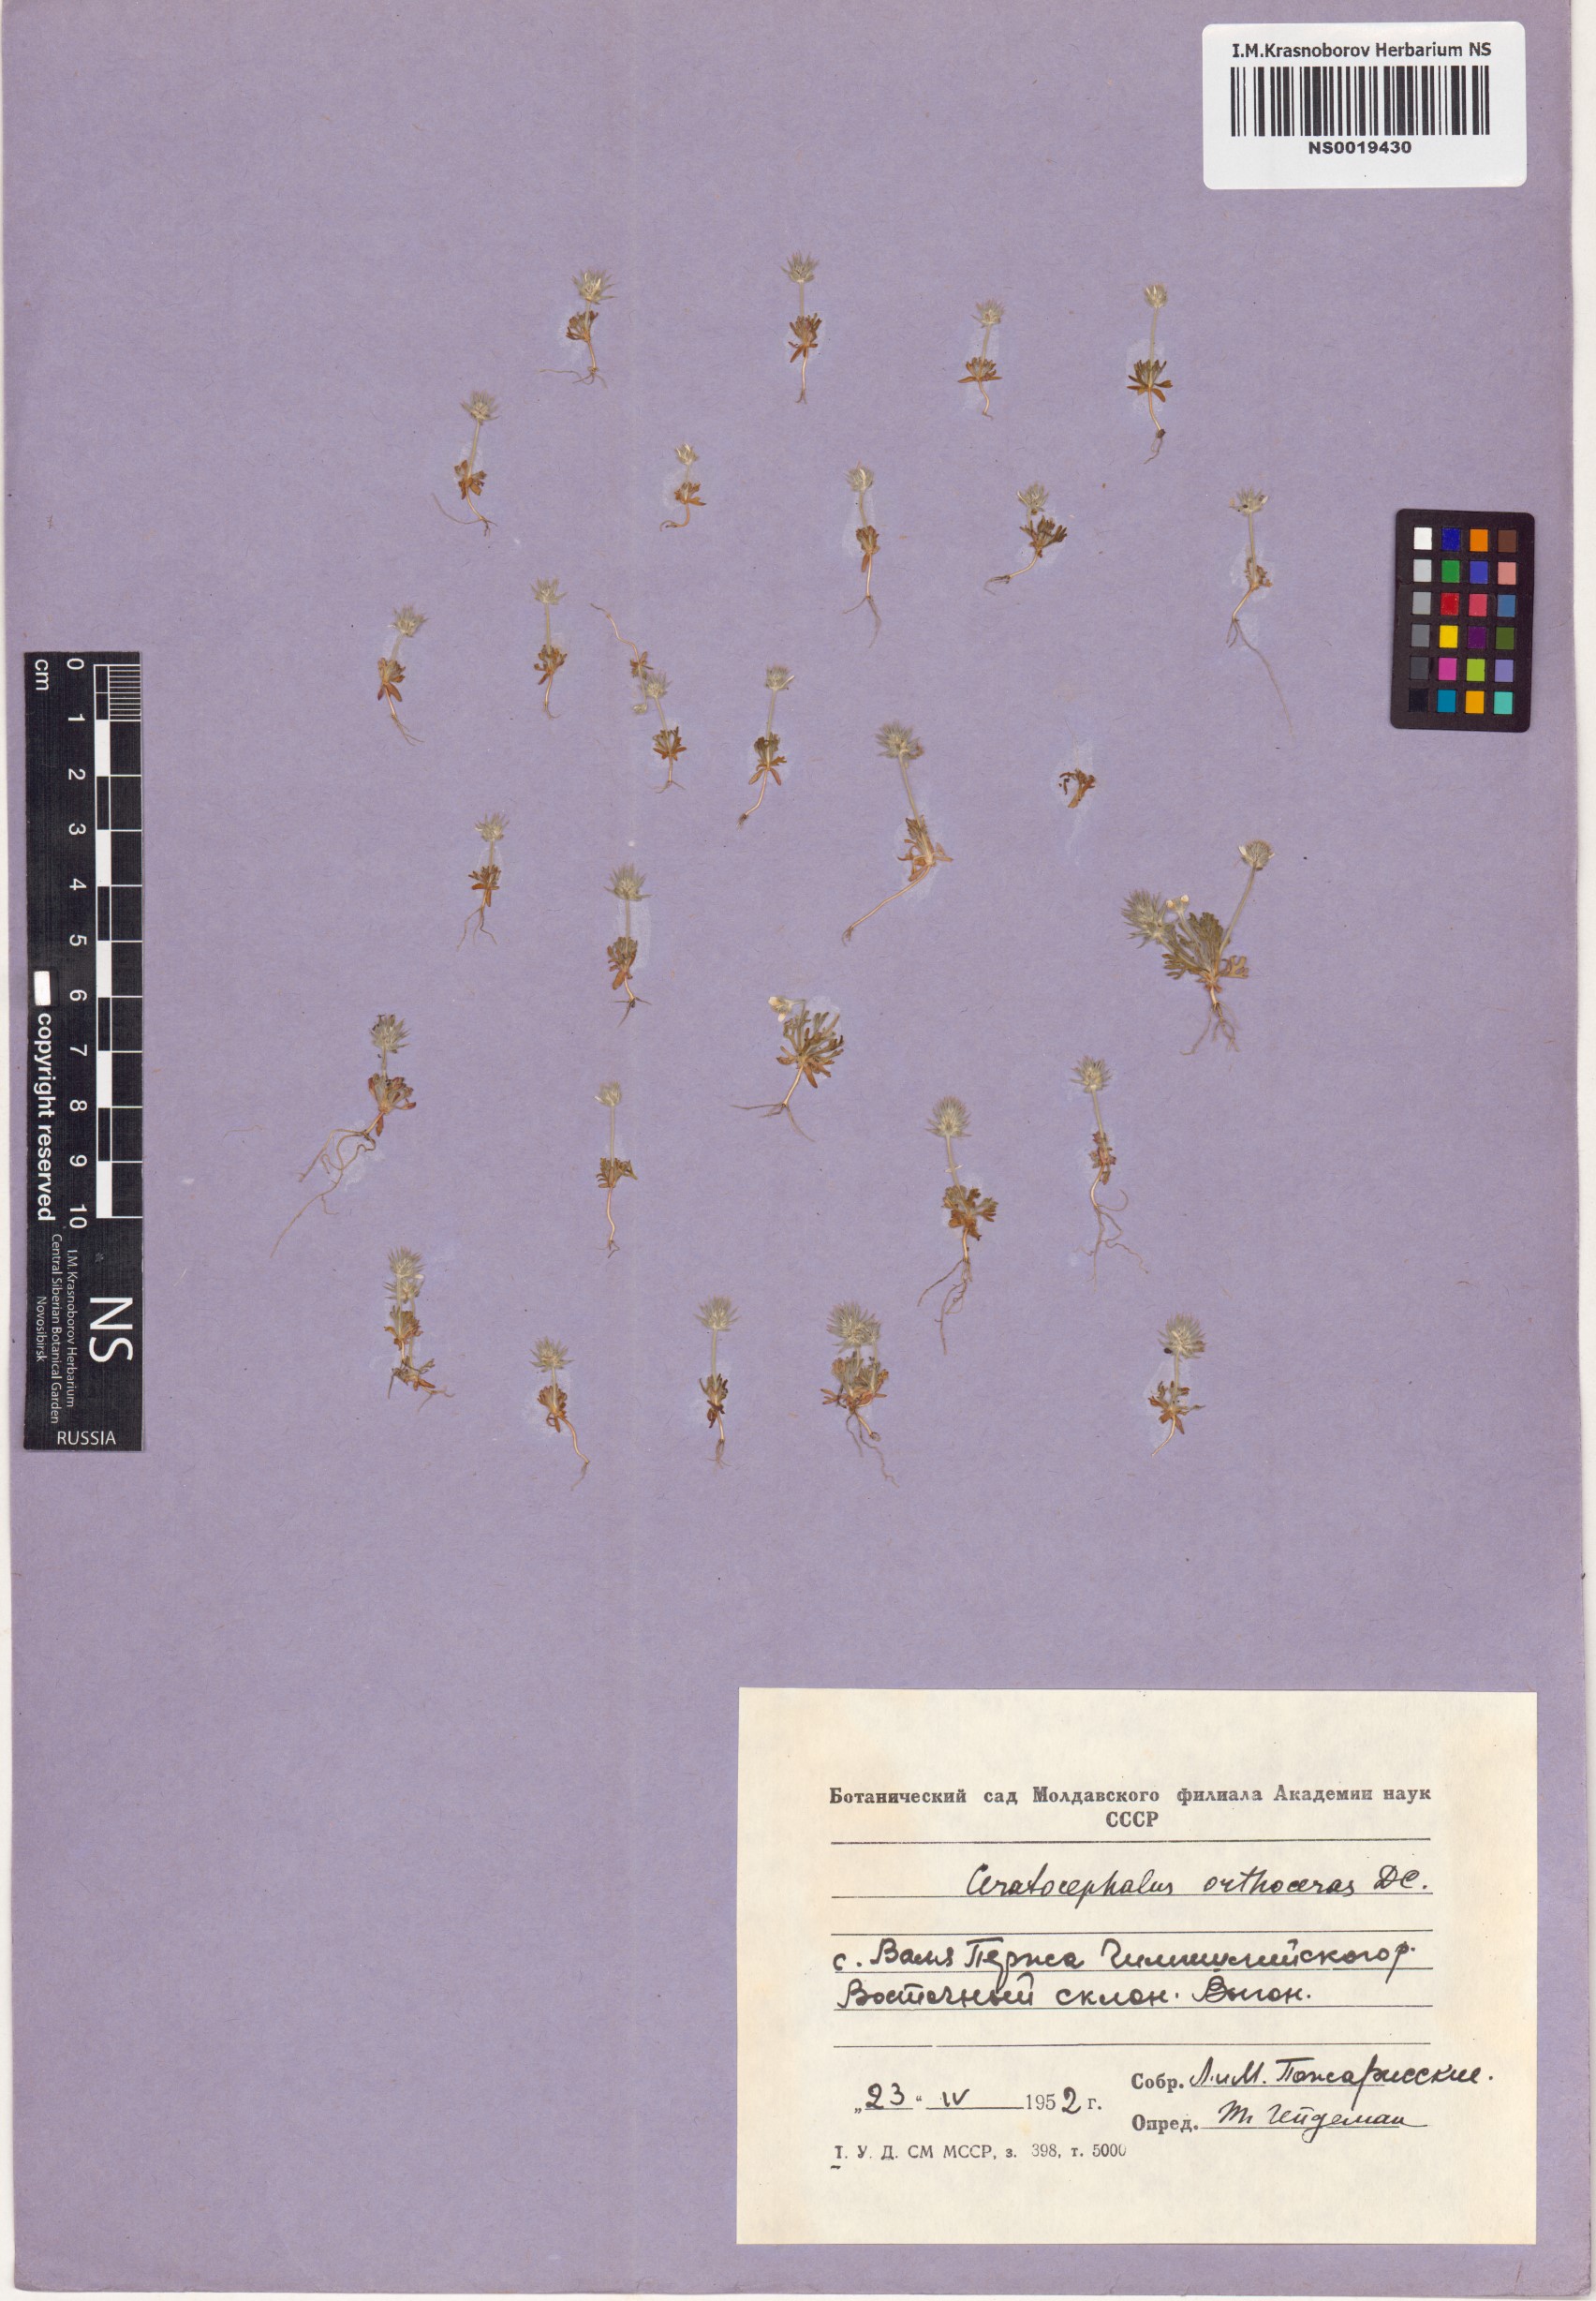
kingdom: Plantae
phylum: Tracheophyta
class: Magnoliopsida
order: Ranunculales
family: Ranunculaceae
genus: Ceratocephala
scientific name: Ceratocephala orthoceras
